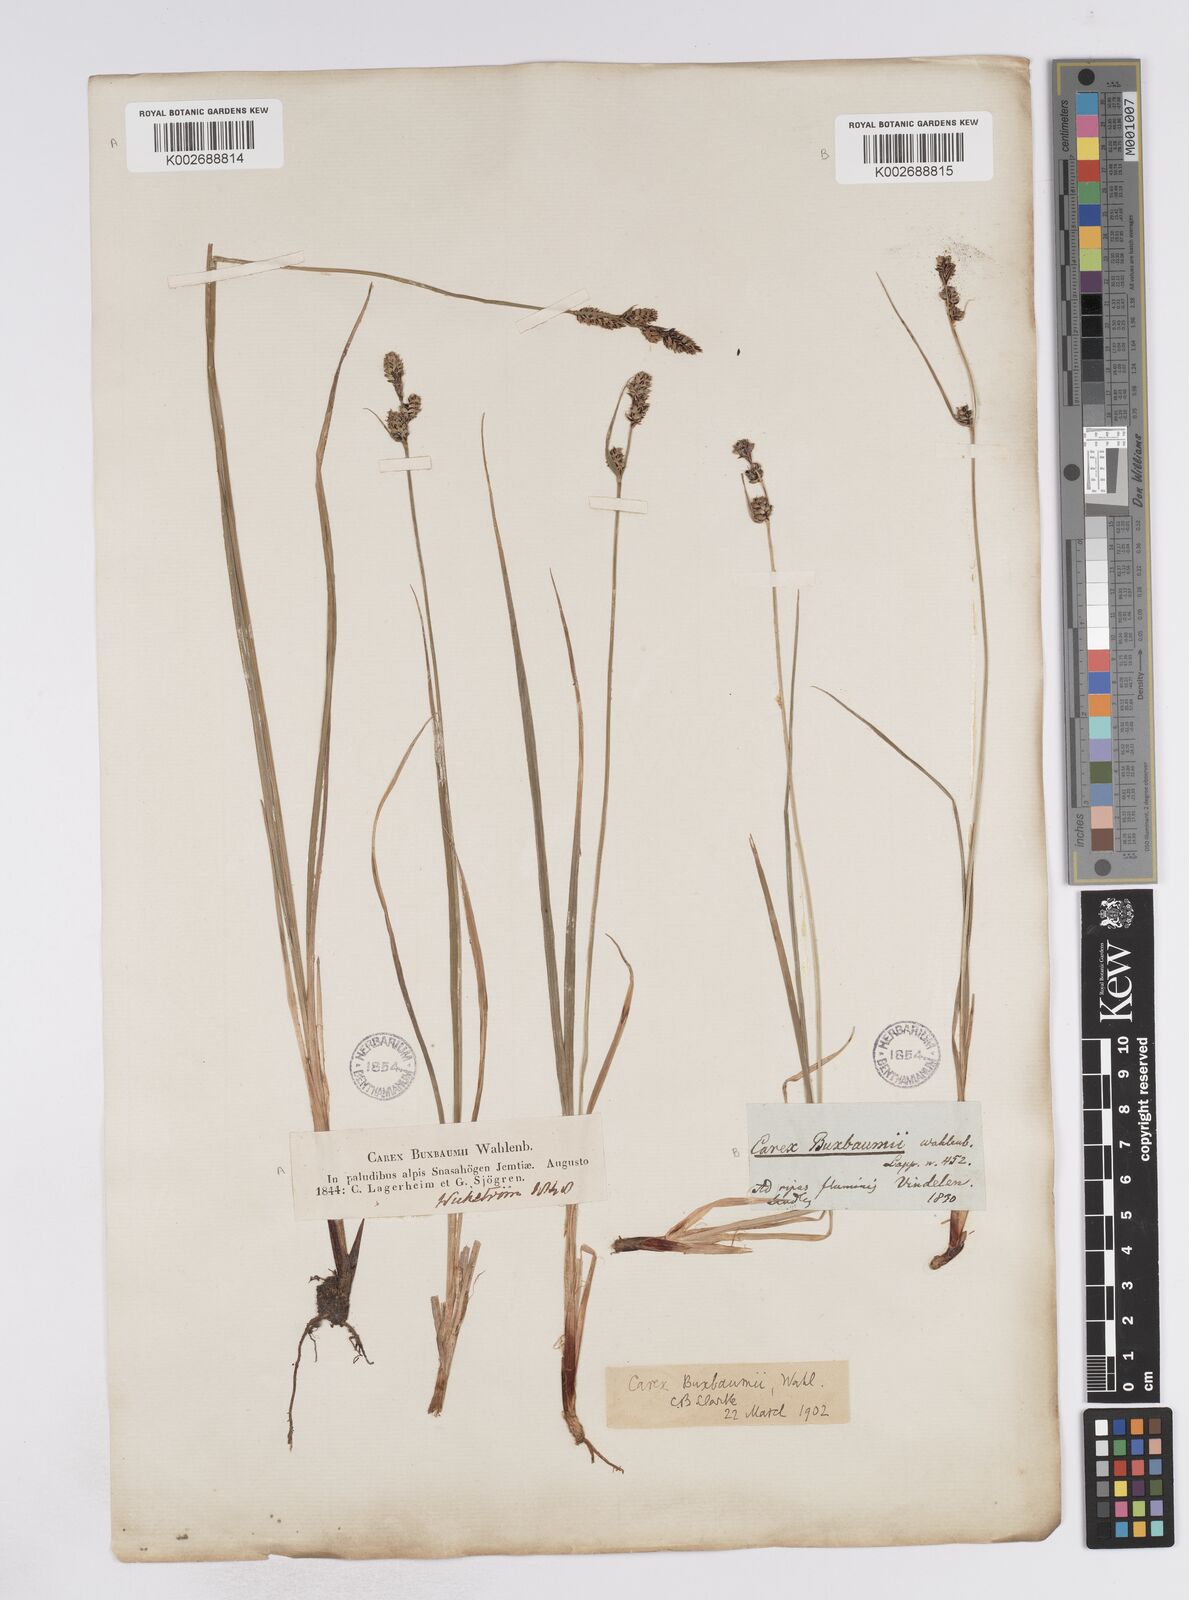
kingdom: Plantae
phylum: Tracheophyta
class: Liliopsida
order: Poales
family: Cyperaceae
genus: Carex
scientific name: Carex buxbaumii
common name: Club sedge
